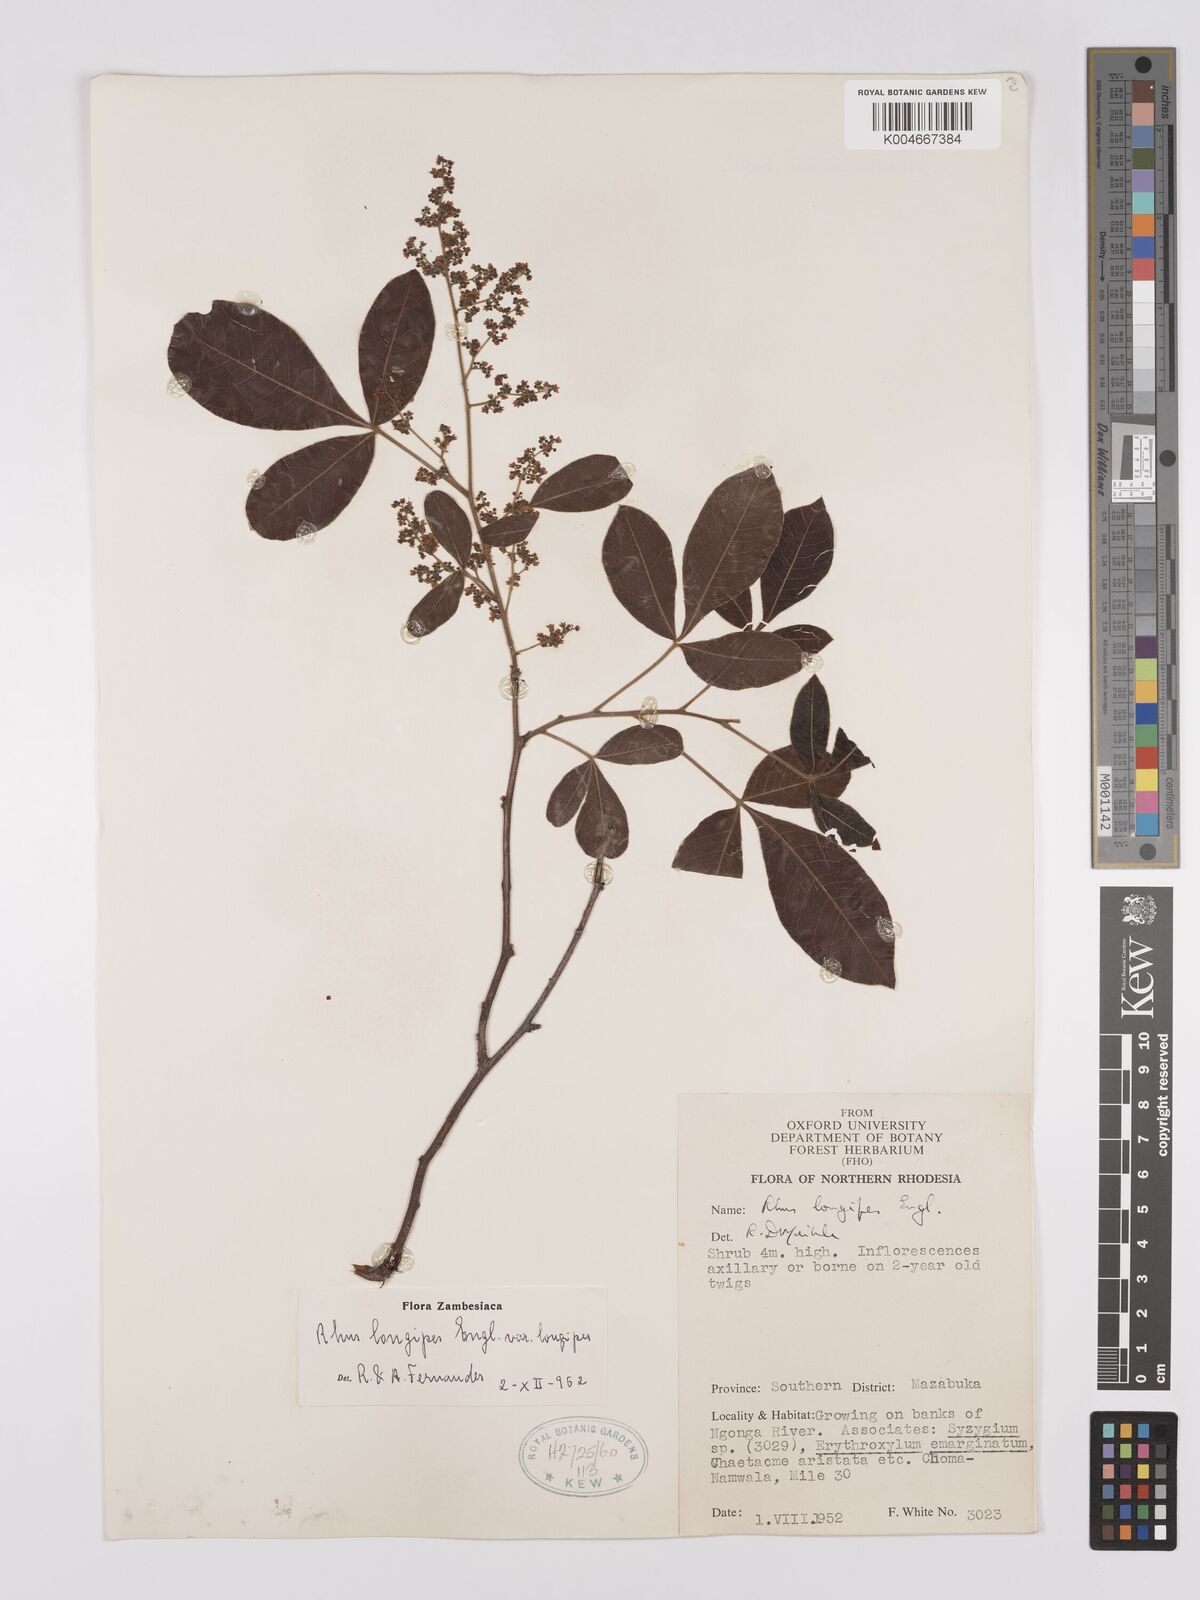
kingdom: Plantae
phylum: Tracheophyta
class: Magnoliopsida
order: Sapindales
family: Anacardiaceae
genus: Searsia
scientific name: Searsia longipes
